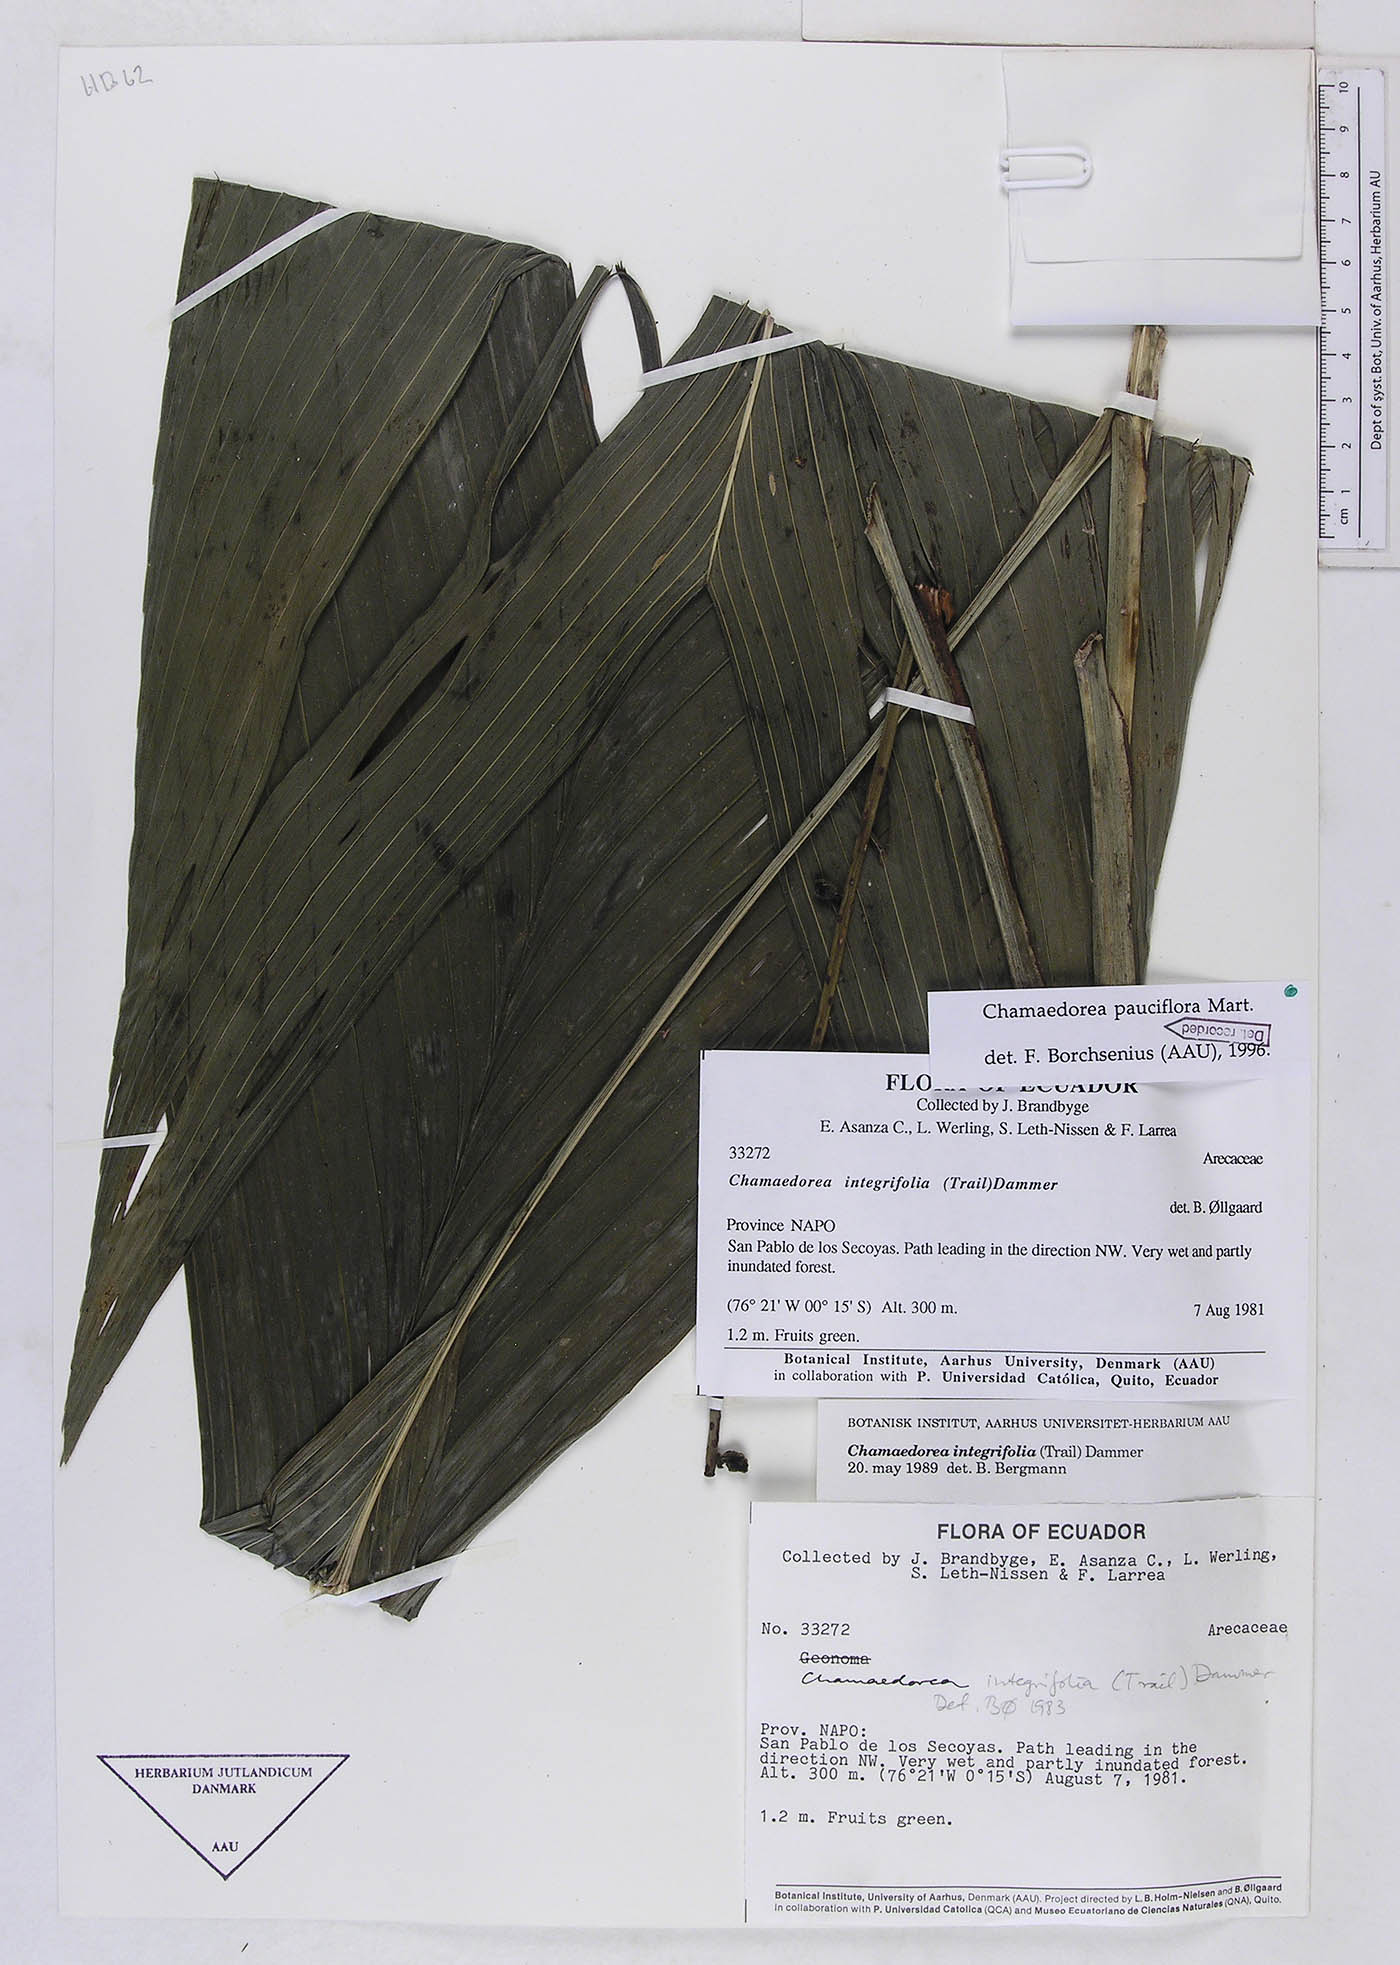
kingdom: Plantae
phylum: Tracheophyta
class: Liliopsida
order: Arecales
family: Arecaceae
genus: Chamaedorea
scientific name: Chamaedorea pauciflora
